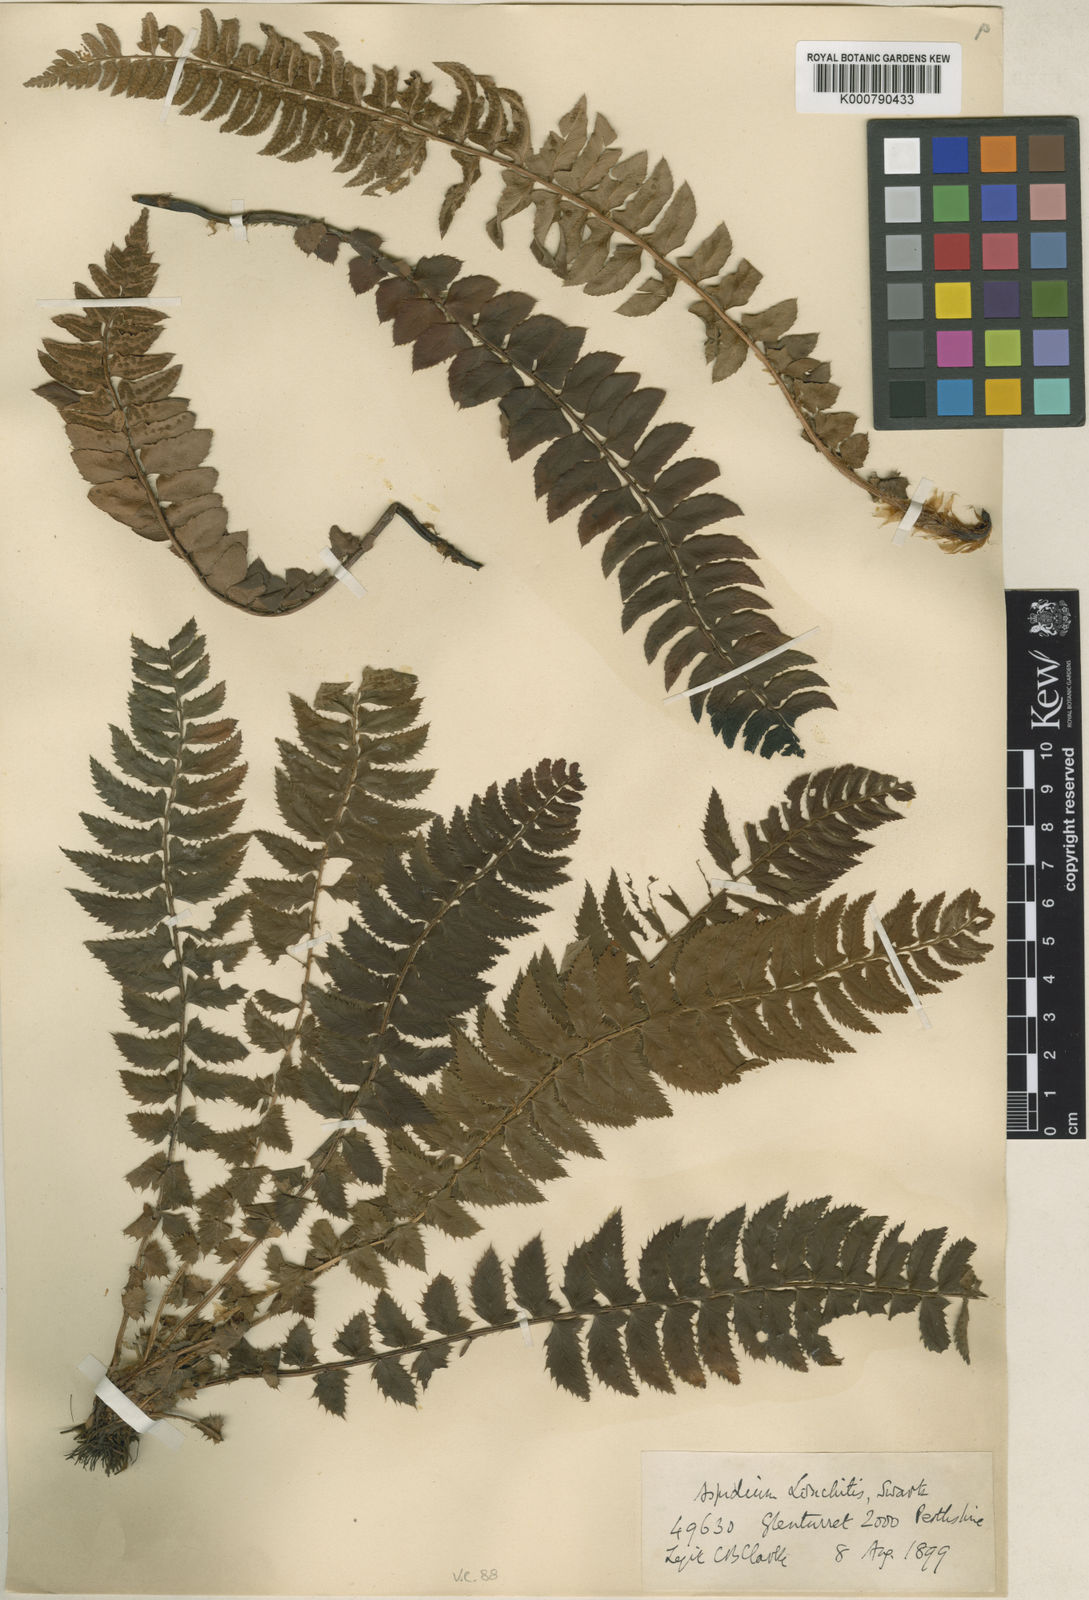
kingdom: Plantae
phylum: Tracheophyta
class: Polypodiopsida
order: Polypodiales
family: Dryopteridaceae
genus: Polystichum
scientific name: Polystichum
